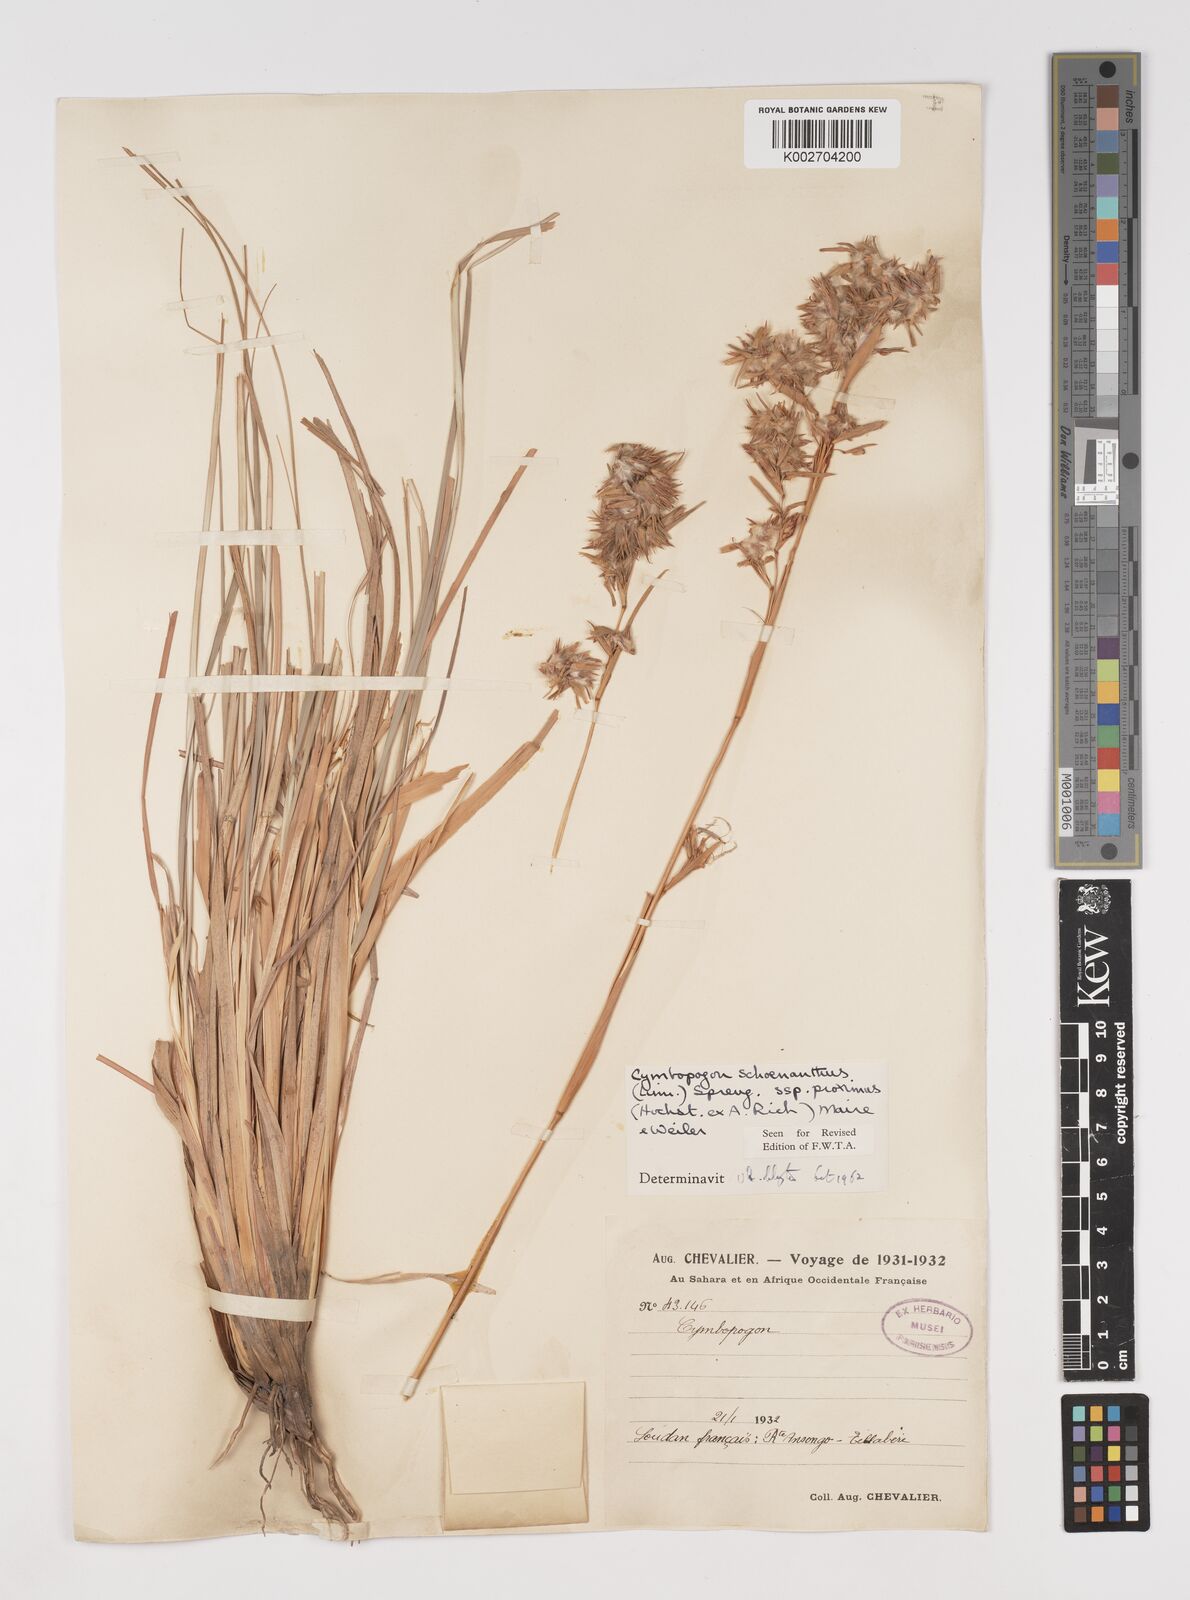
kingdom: Plantae
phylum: Tracheophyta
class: Liliopsida
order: Poales
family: Poaceae
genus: Cymbopogon
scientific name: Cymbopogon schoenanthus
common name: Geranium grass
